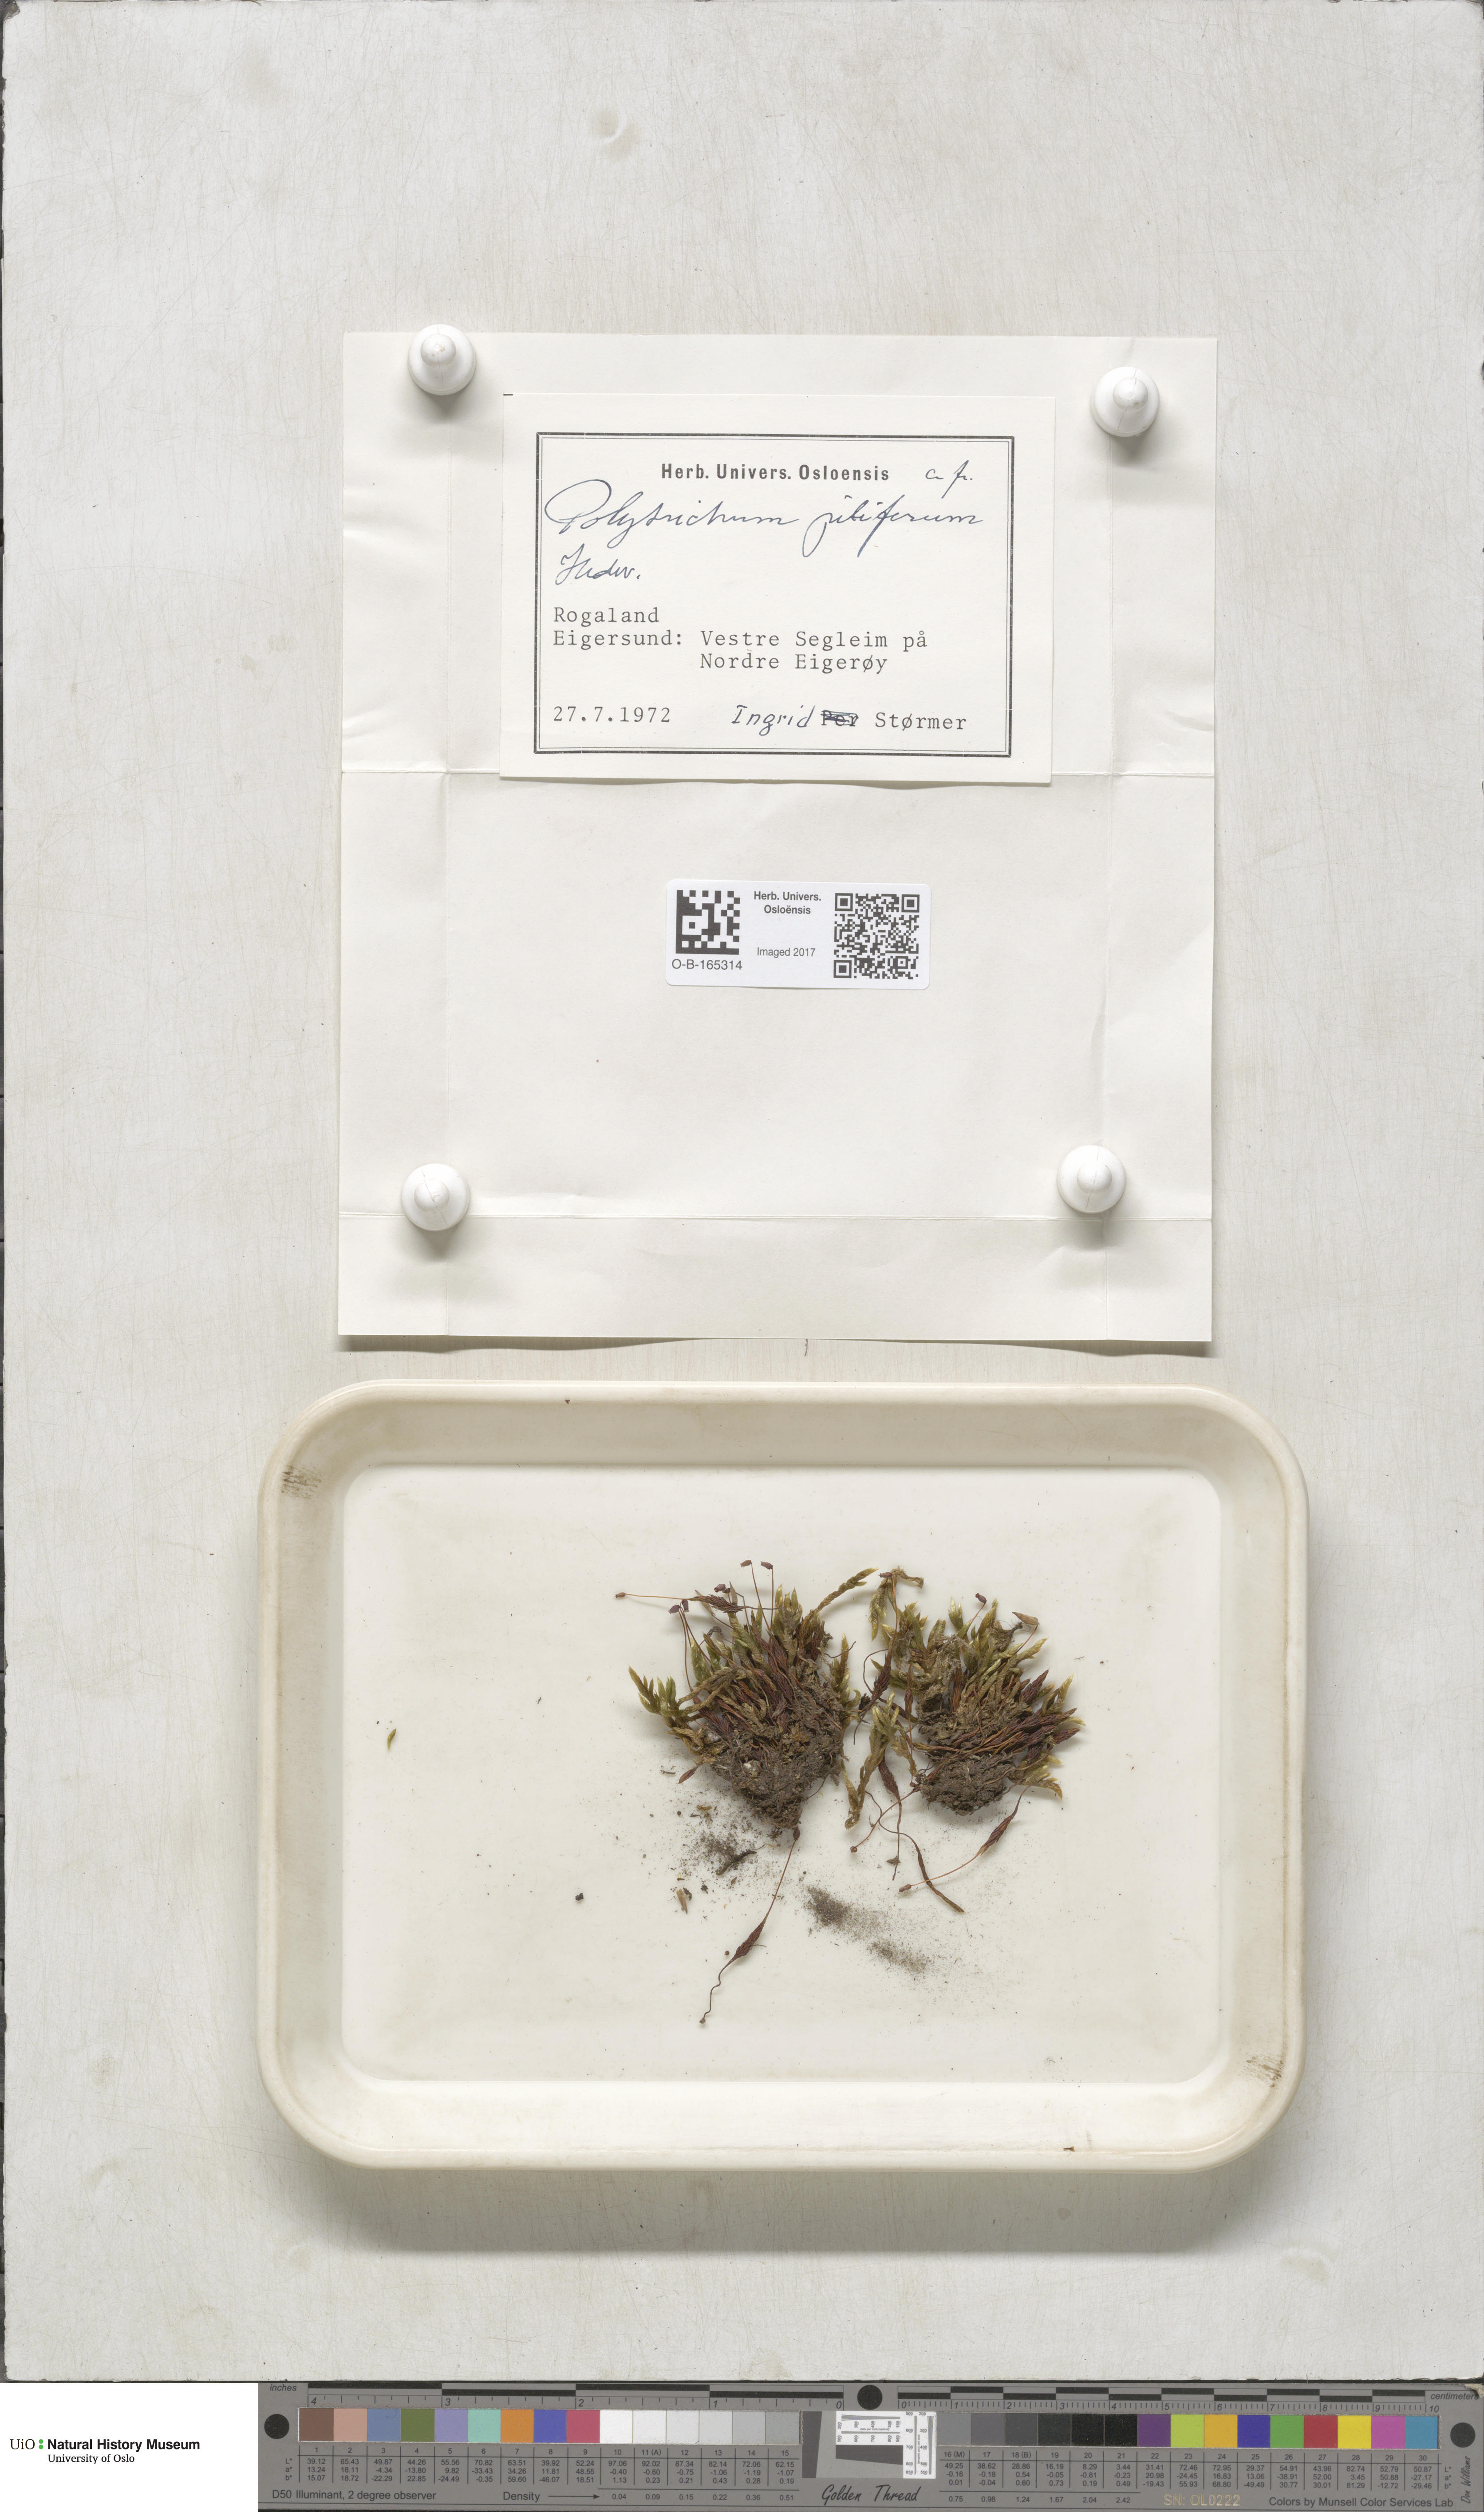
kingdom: Plantae
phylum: Bryophyta
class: Polytrichopsida
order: Polytrichales
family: Polytrichaceae
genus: Polytrichum
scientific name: Polytrichum piliferum
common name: Bristly haircap
